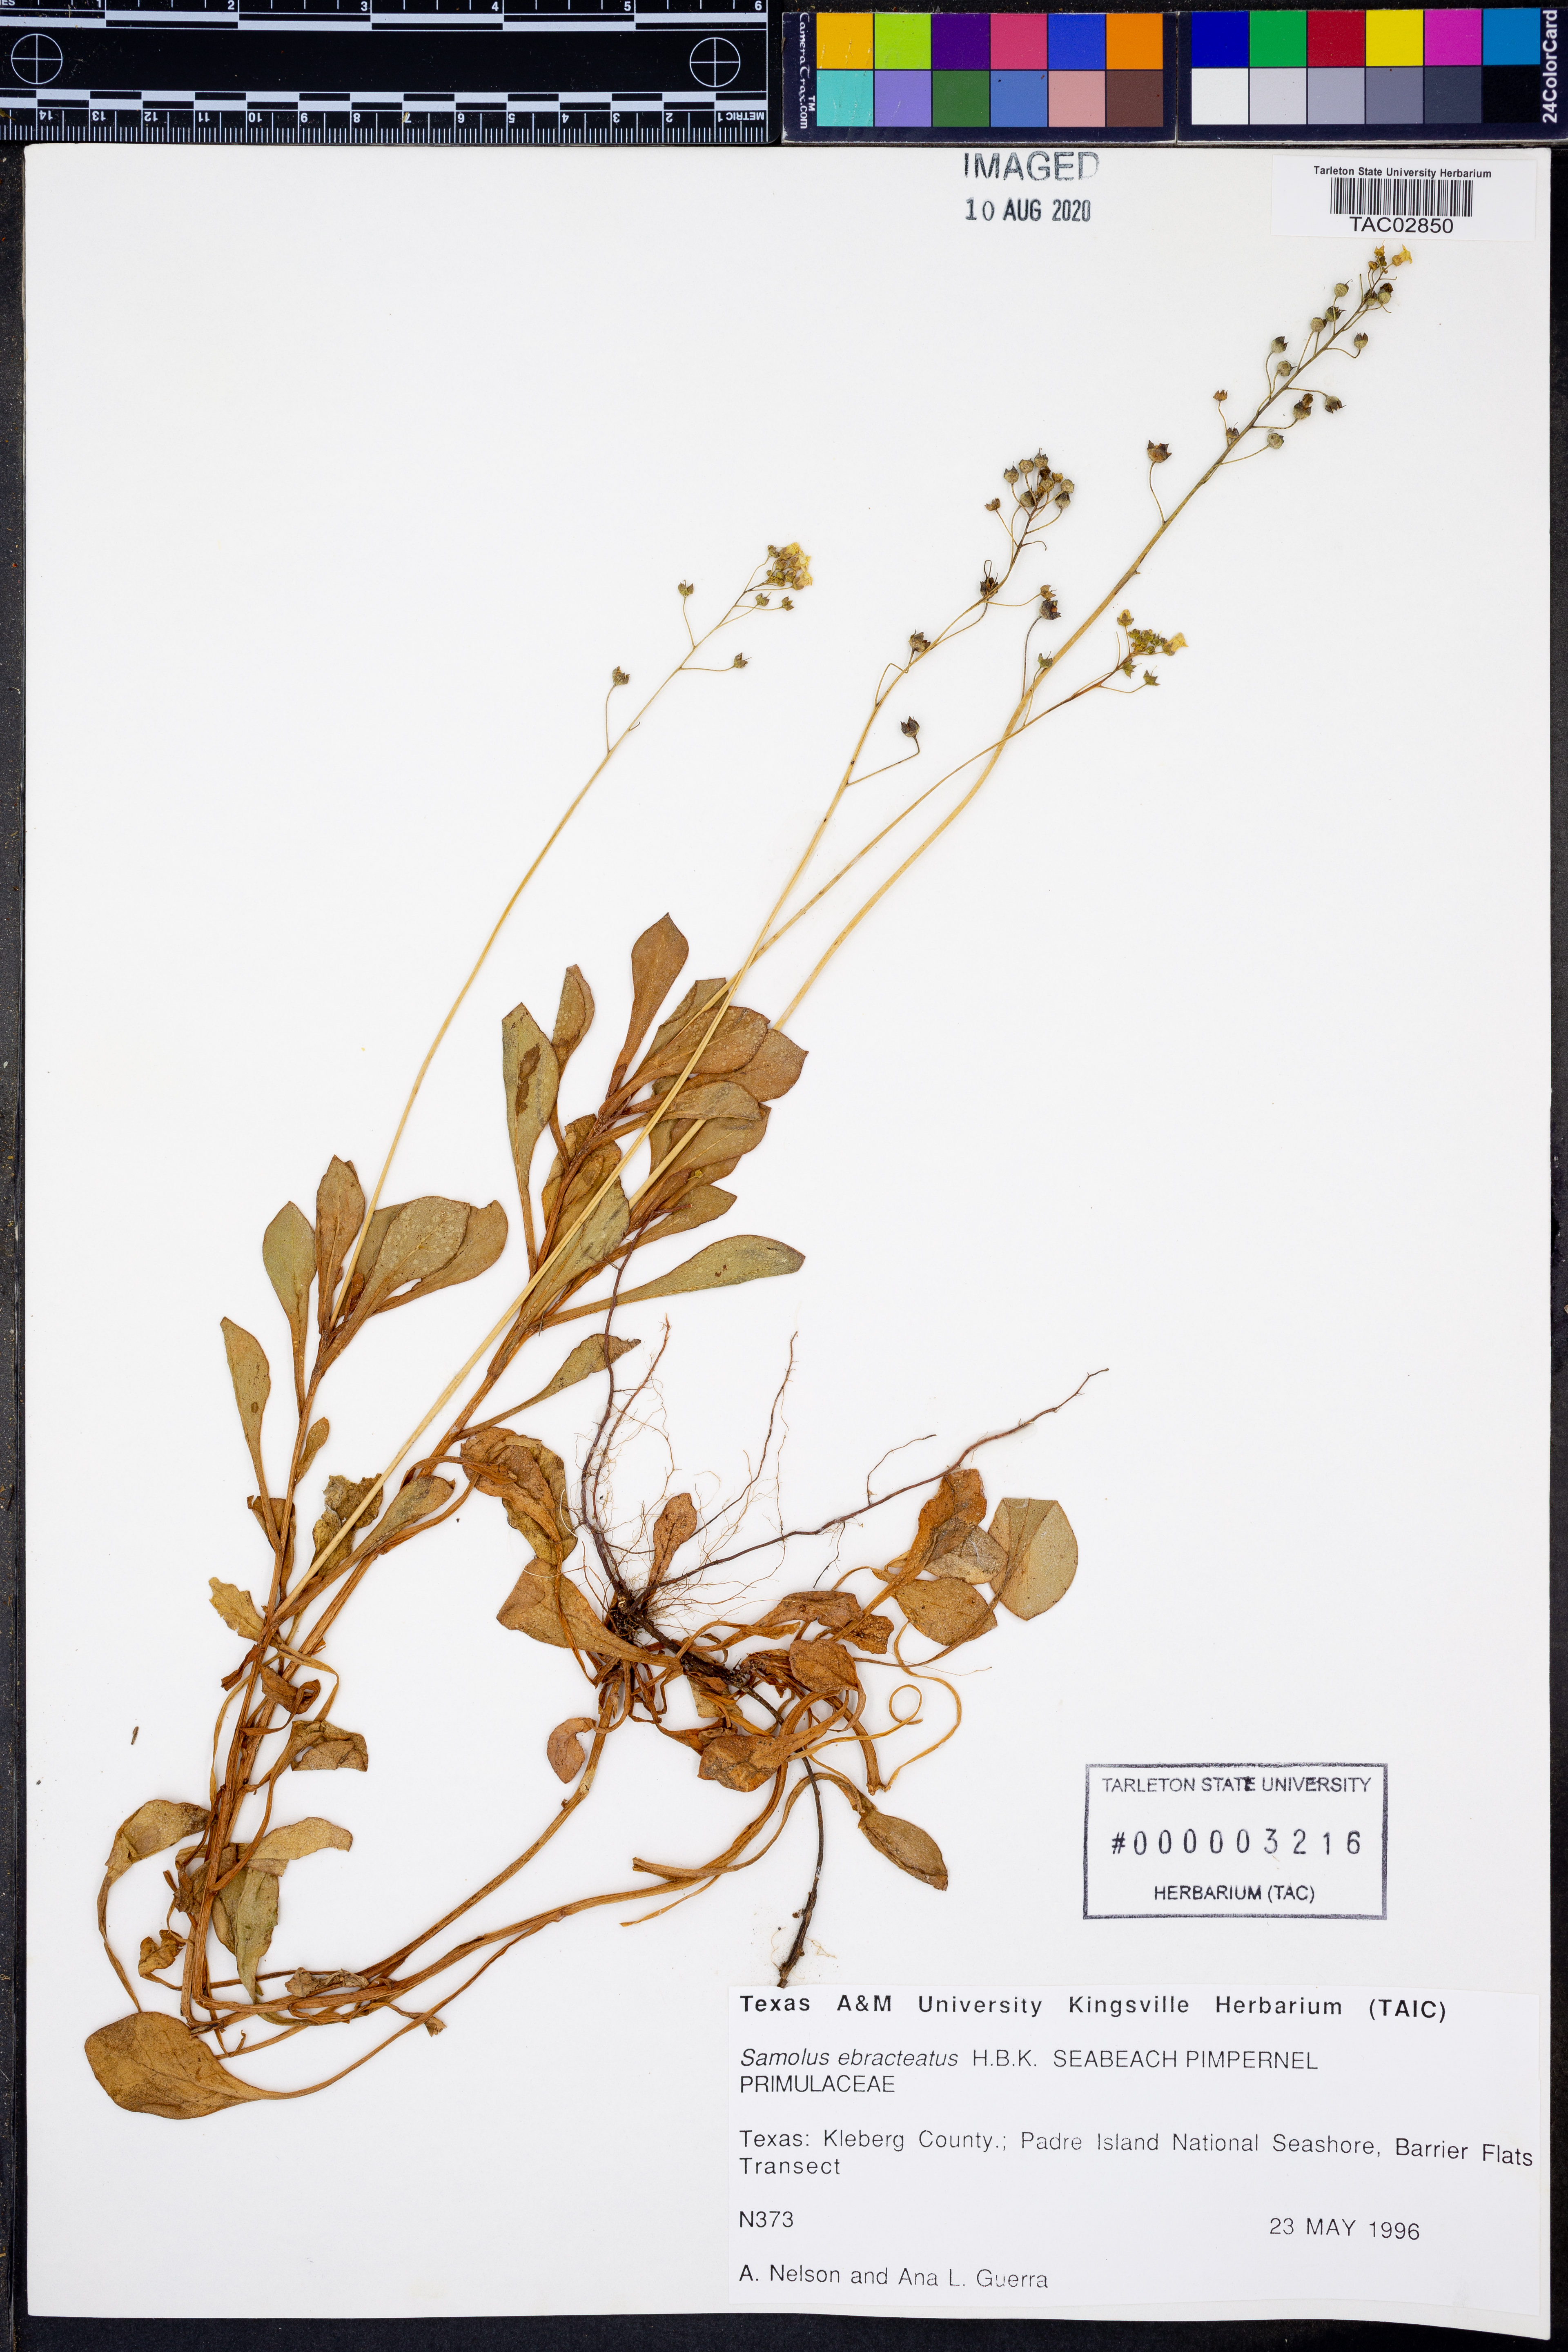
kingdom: Plantae
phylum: Tracheophyta
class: Magnoliopsida
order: Ericales
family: Primulaceae
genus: Samolus
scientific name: Samolus ebracteatus
